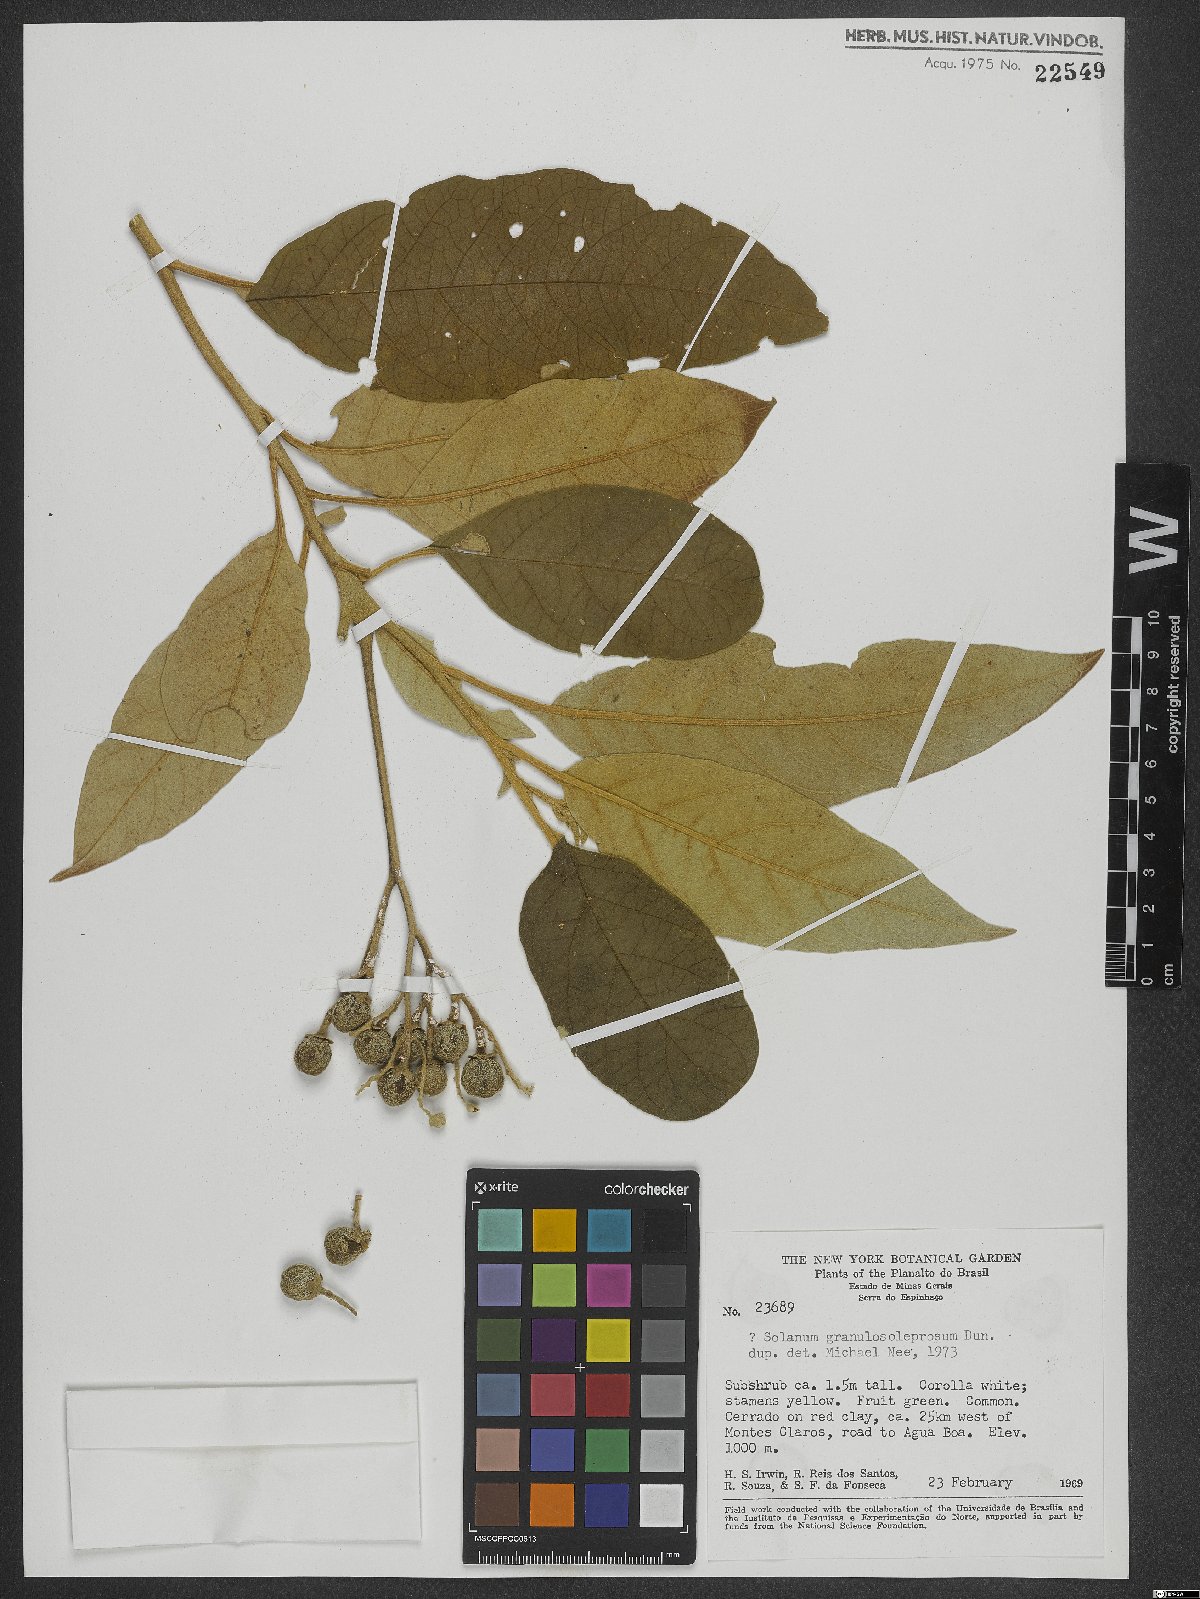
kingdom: Plantae
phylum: Tracheophyta
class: Magnoliopsida
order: Solanales
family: Solanaceae
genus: Solanum
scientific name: Solanum granulosoleprosum
